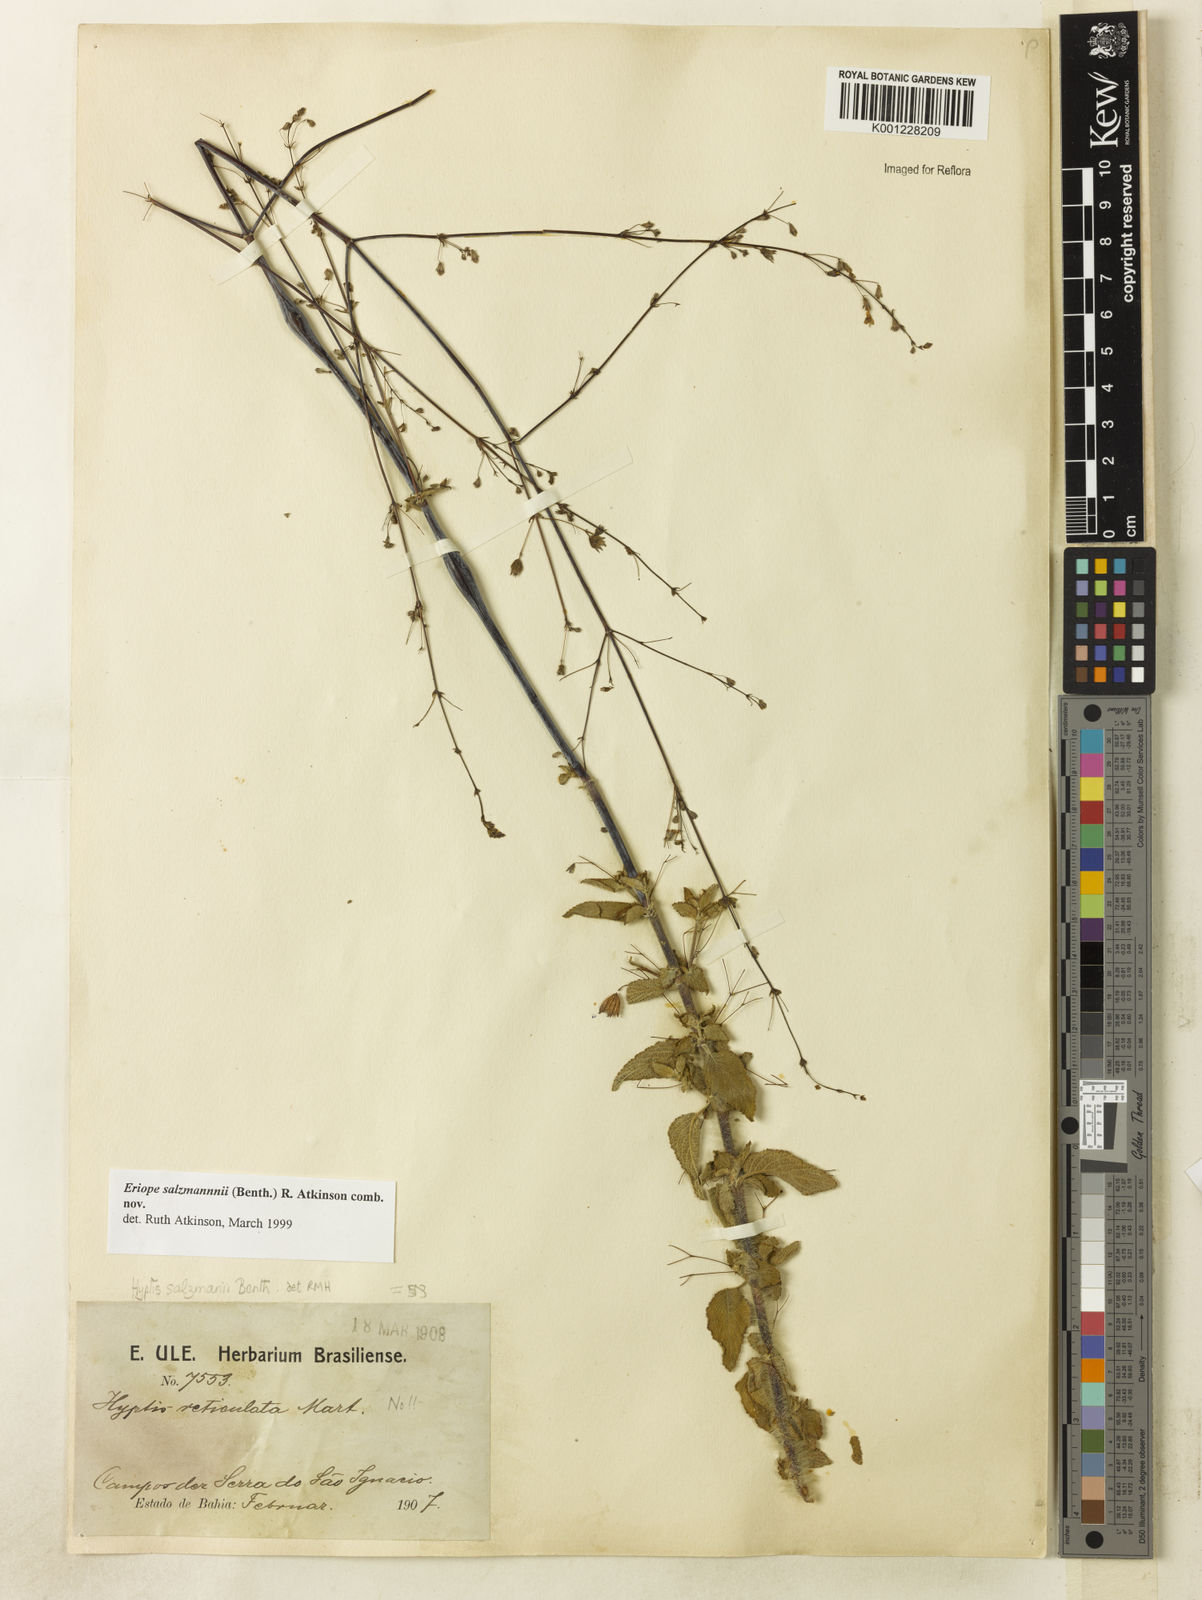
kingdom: Plantae
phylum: Tracheophyta
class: Magnoliopsida
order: Lamiales
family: Lamiaceae
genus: Hypenia
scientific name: Hypenia salzmannii
